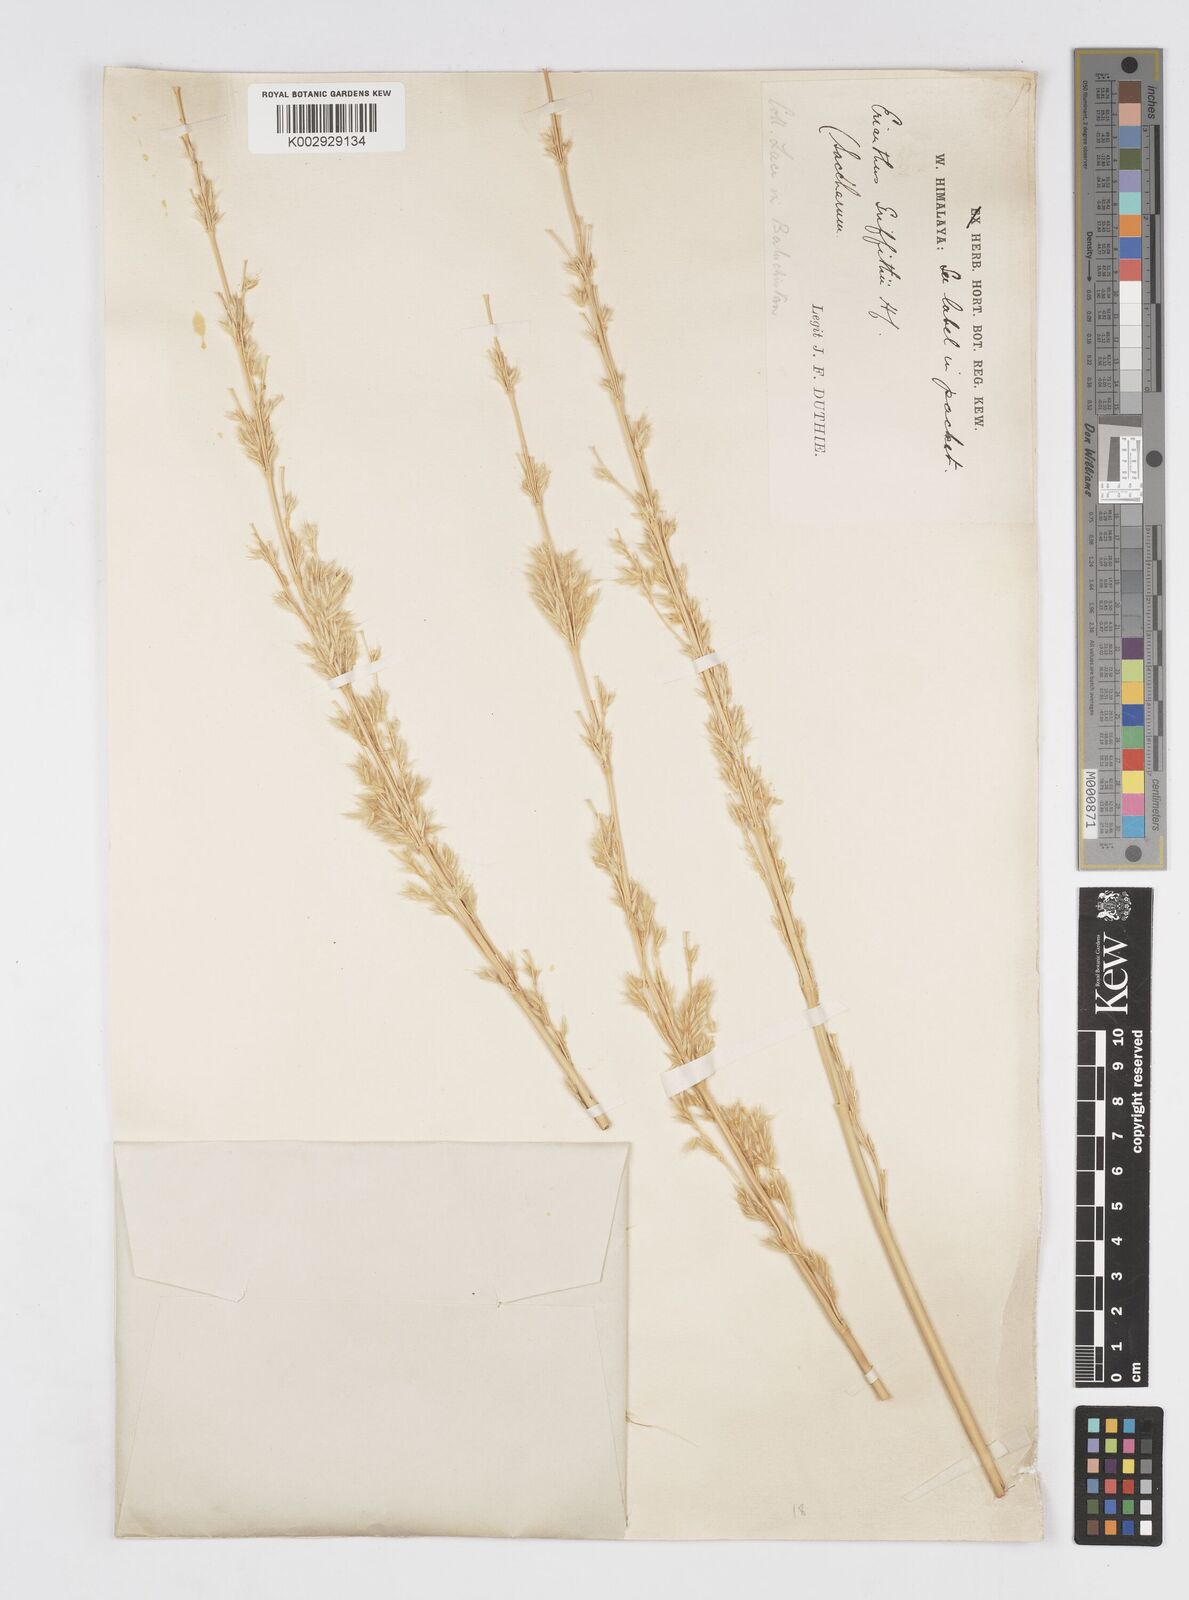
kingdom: Plantae
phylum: Tracheophyta
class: Liliopsida
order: Poales
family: Poaceae
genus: Saccharum
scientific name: Saccharum griffithii
